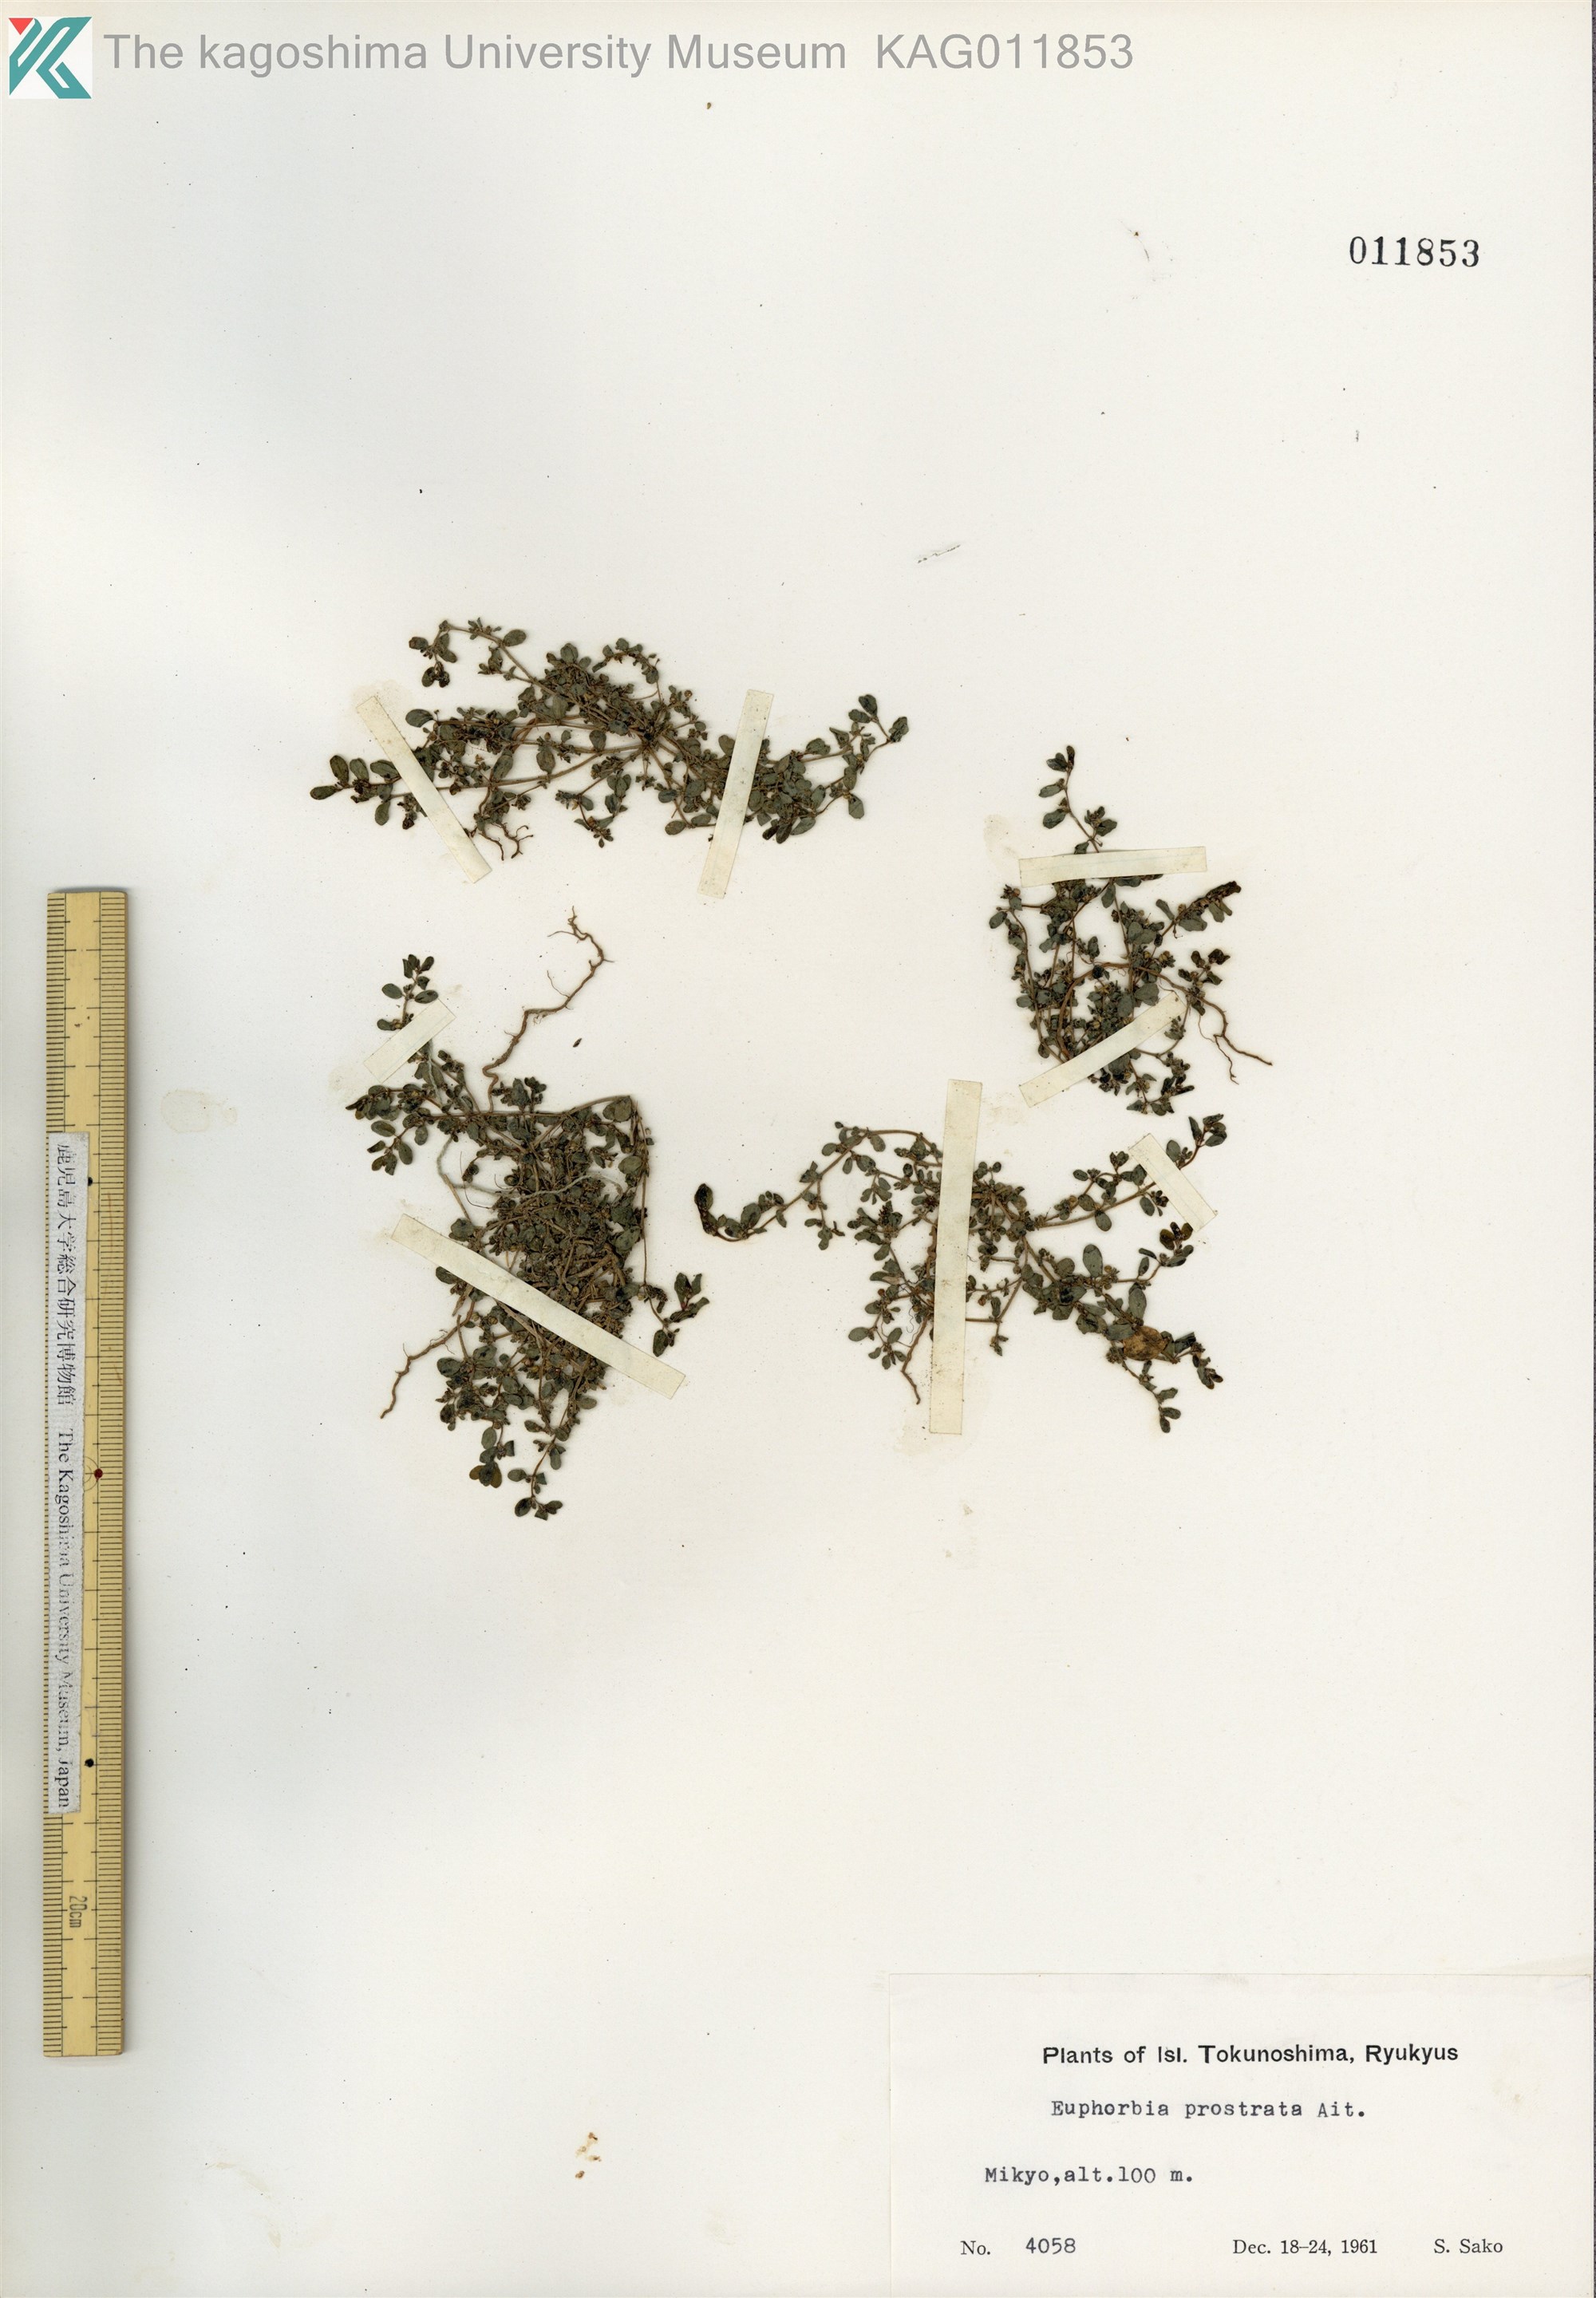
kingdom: Plantae
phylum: Tracheophyta
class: Magnoliopsida
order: Malpighiales
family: Euphorbiaceae
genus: Euphorbia
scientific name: Euphorbia prostrata
